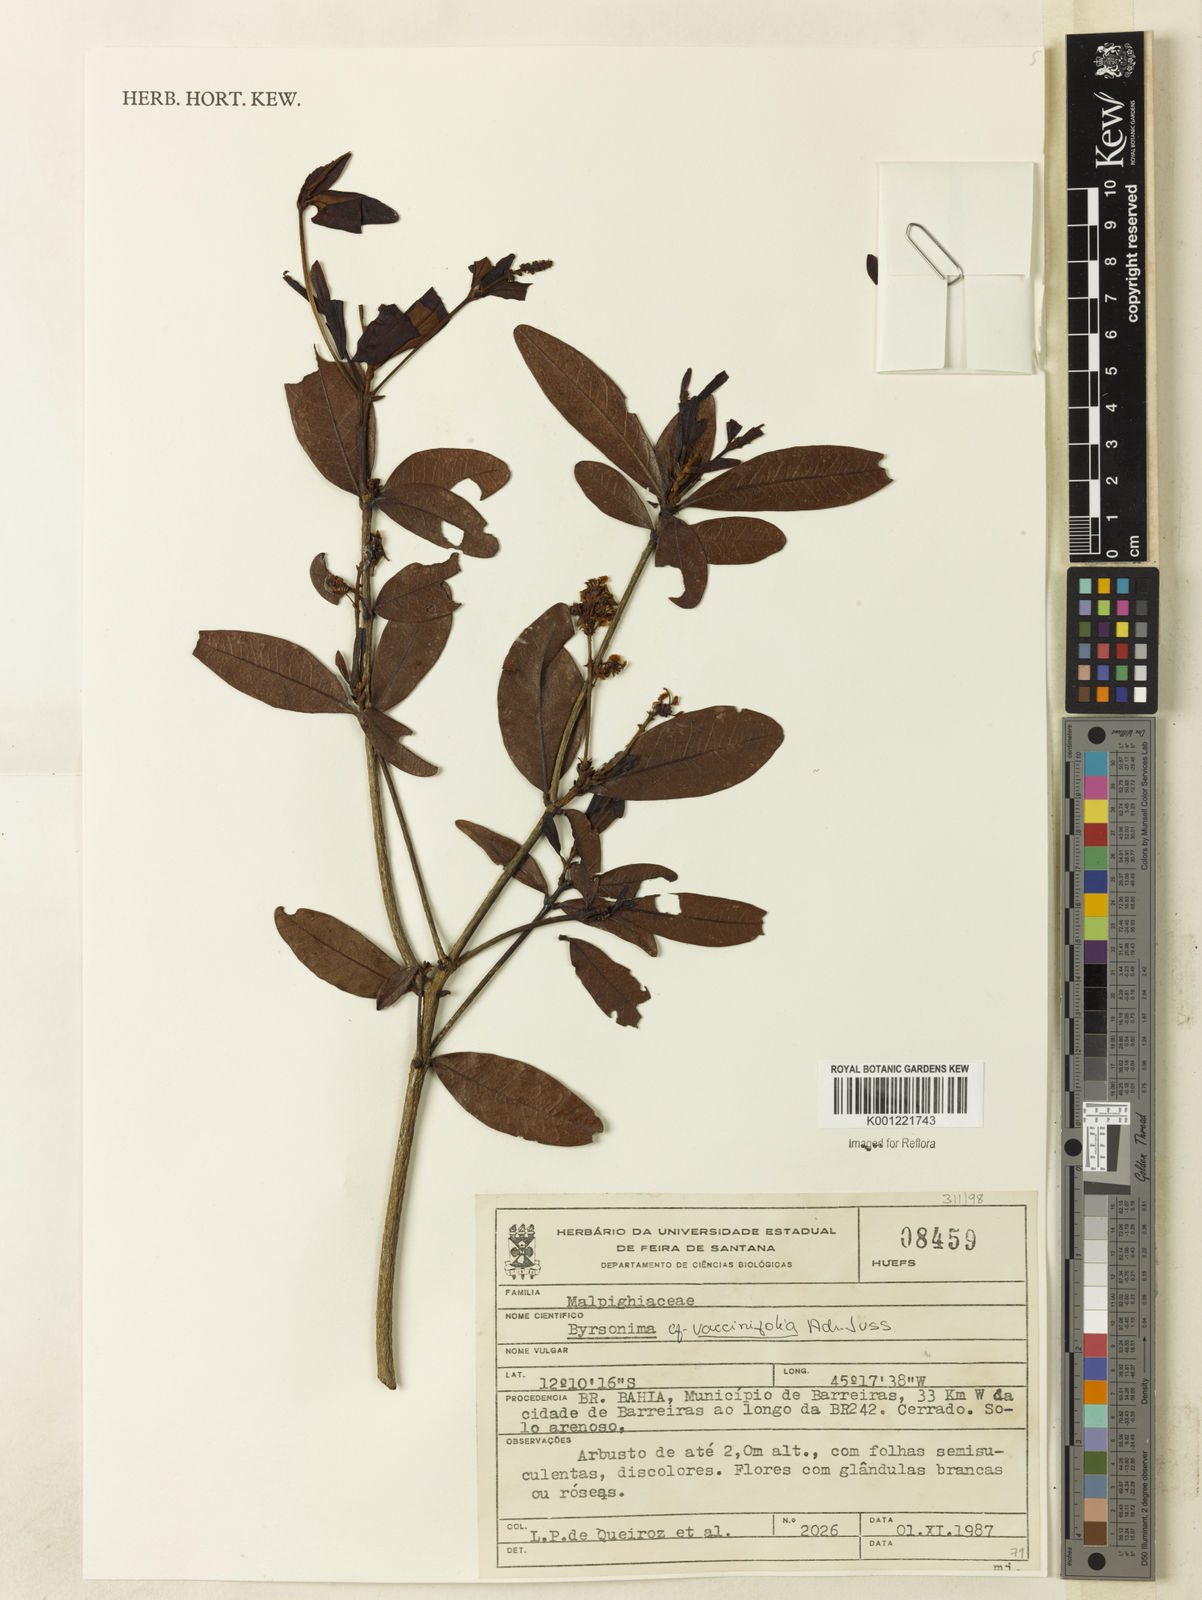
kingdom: Plantae
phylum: Tracheophyta
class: Magnoliopsida
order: Malpighiales
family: Malpighiaceae
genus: Byrsonima
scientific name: Byrsonima vacciniifolia
